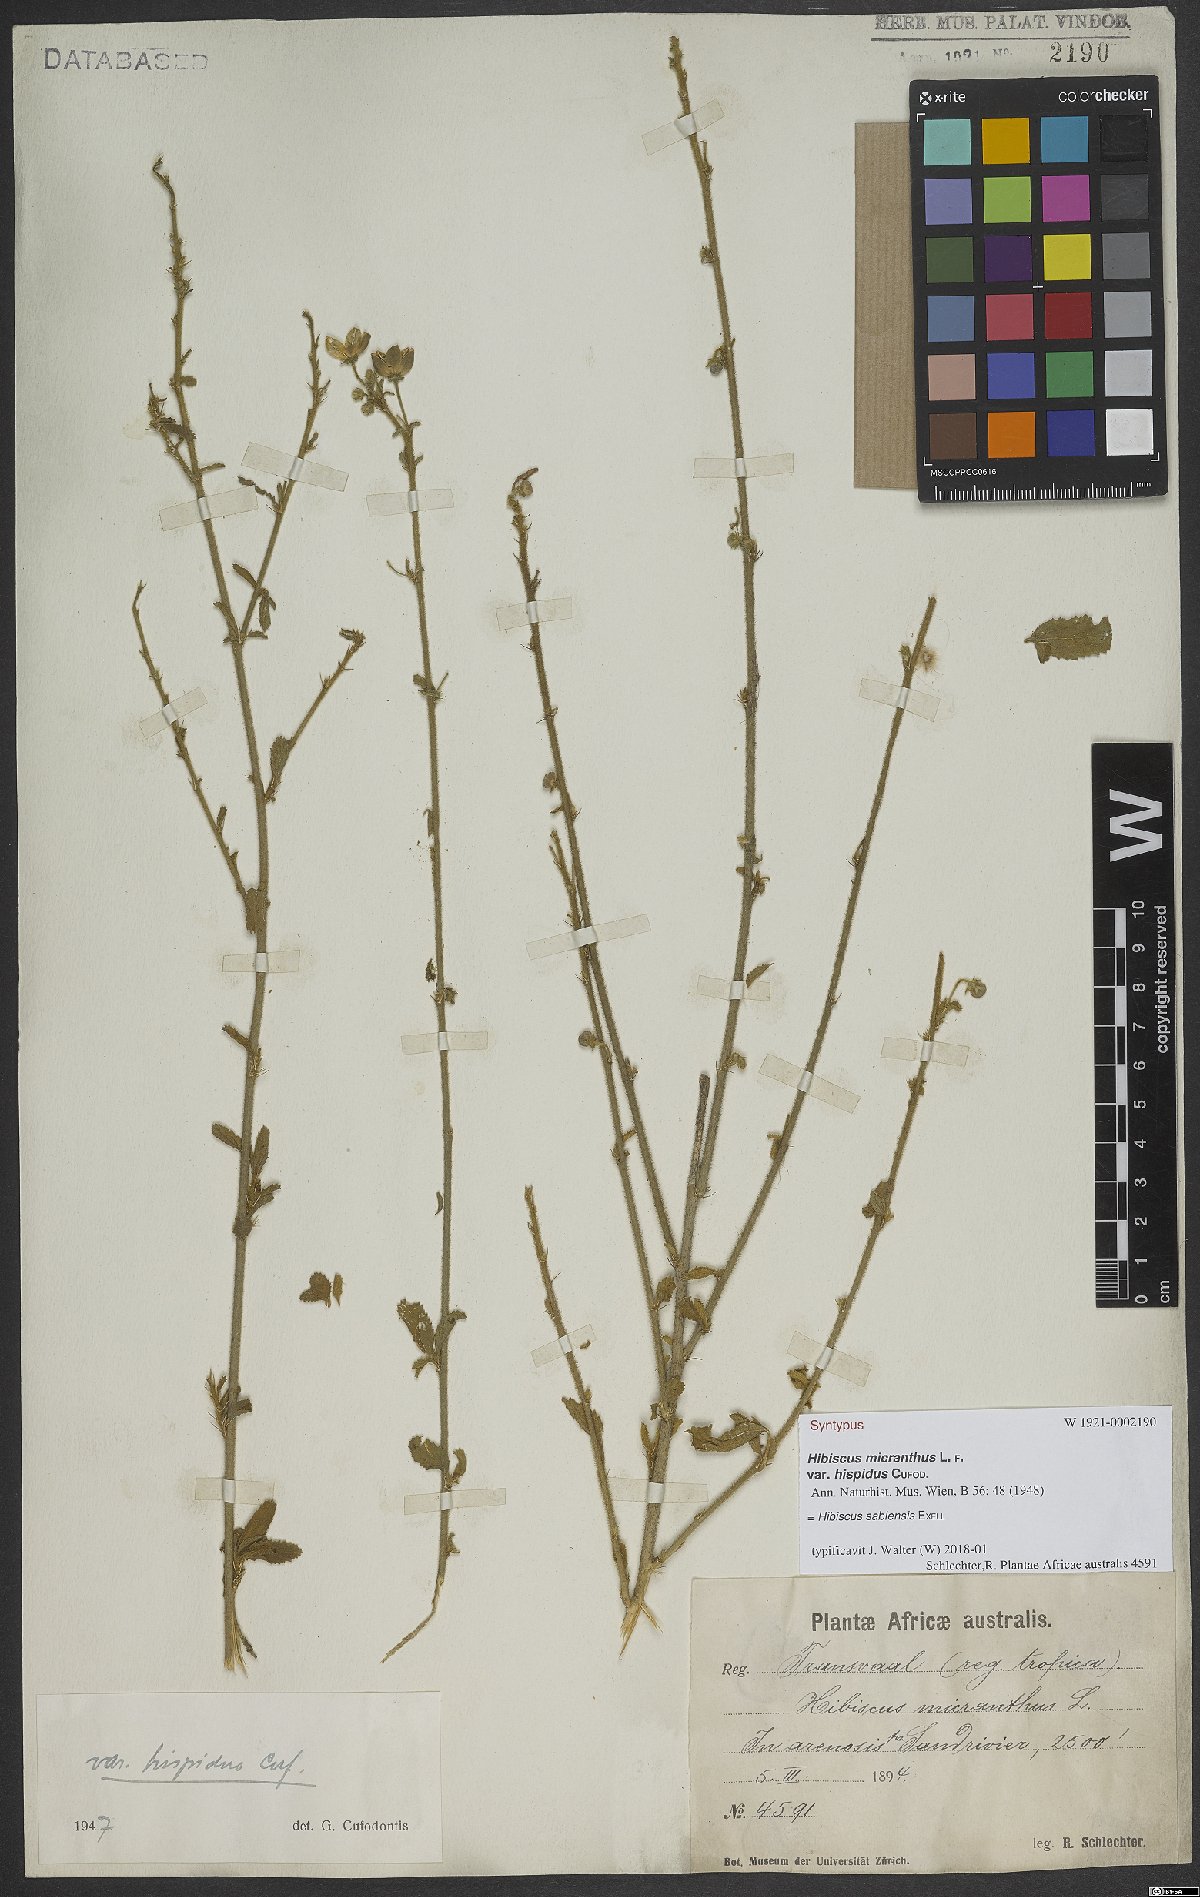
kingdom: Plantae
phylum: Tracheophyta
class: Magnoliopsida
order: Malvales
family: Malvaceae
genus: Hibiscus
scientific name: Hibiscus sabiensis
